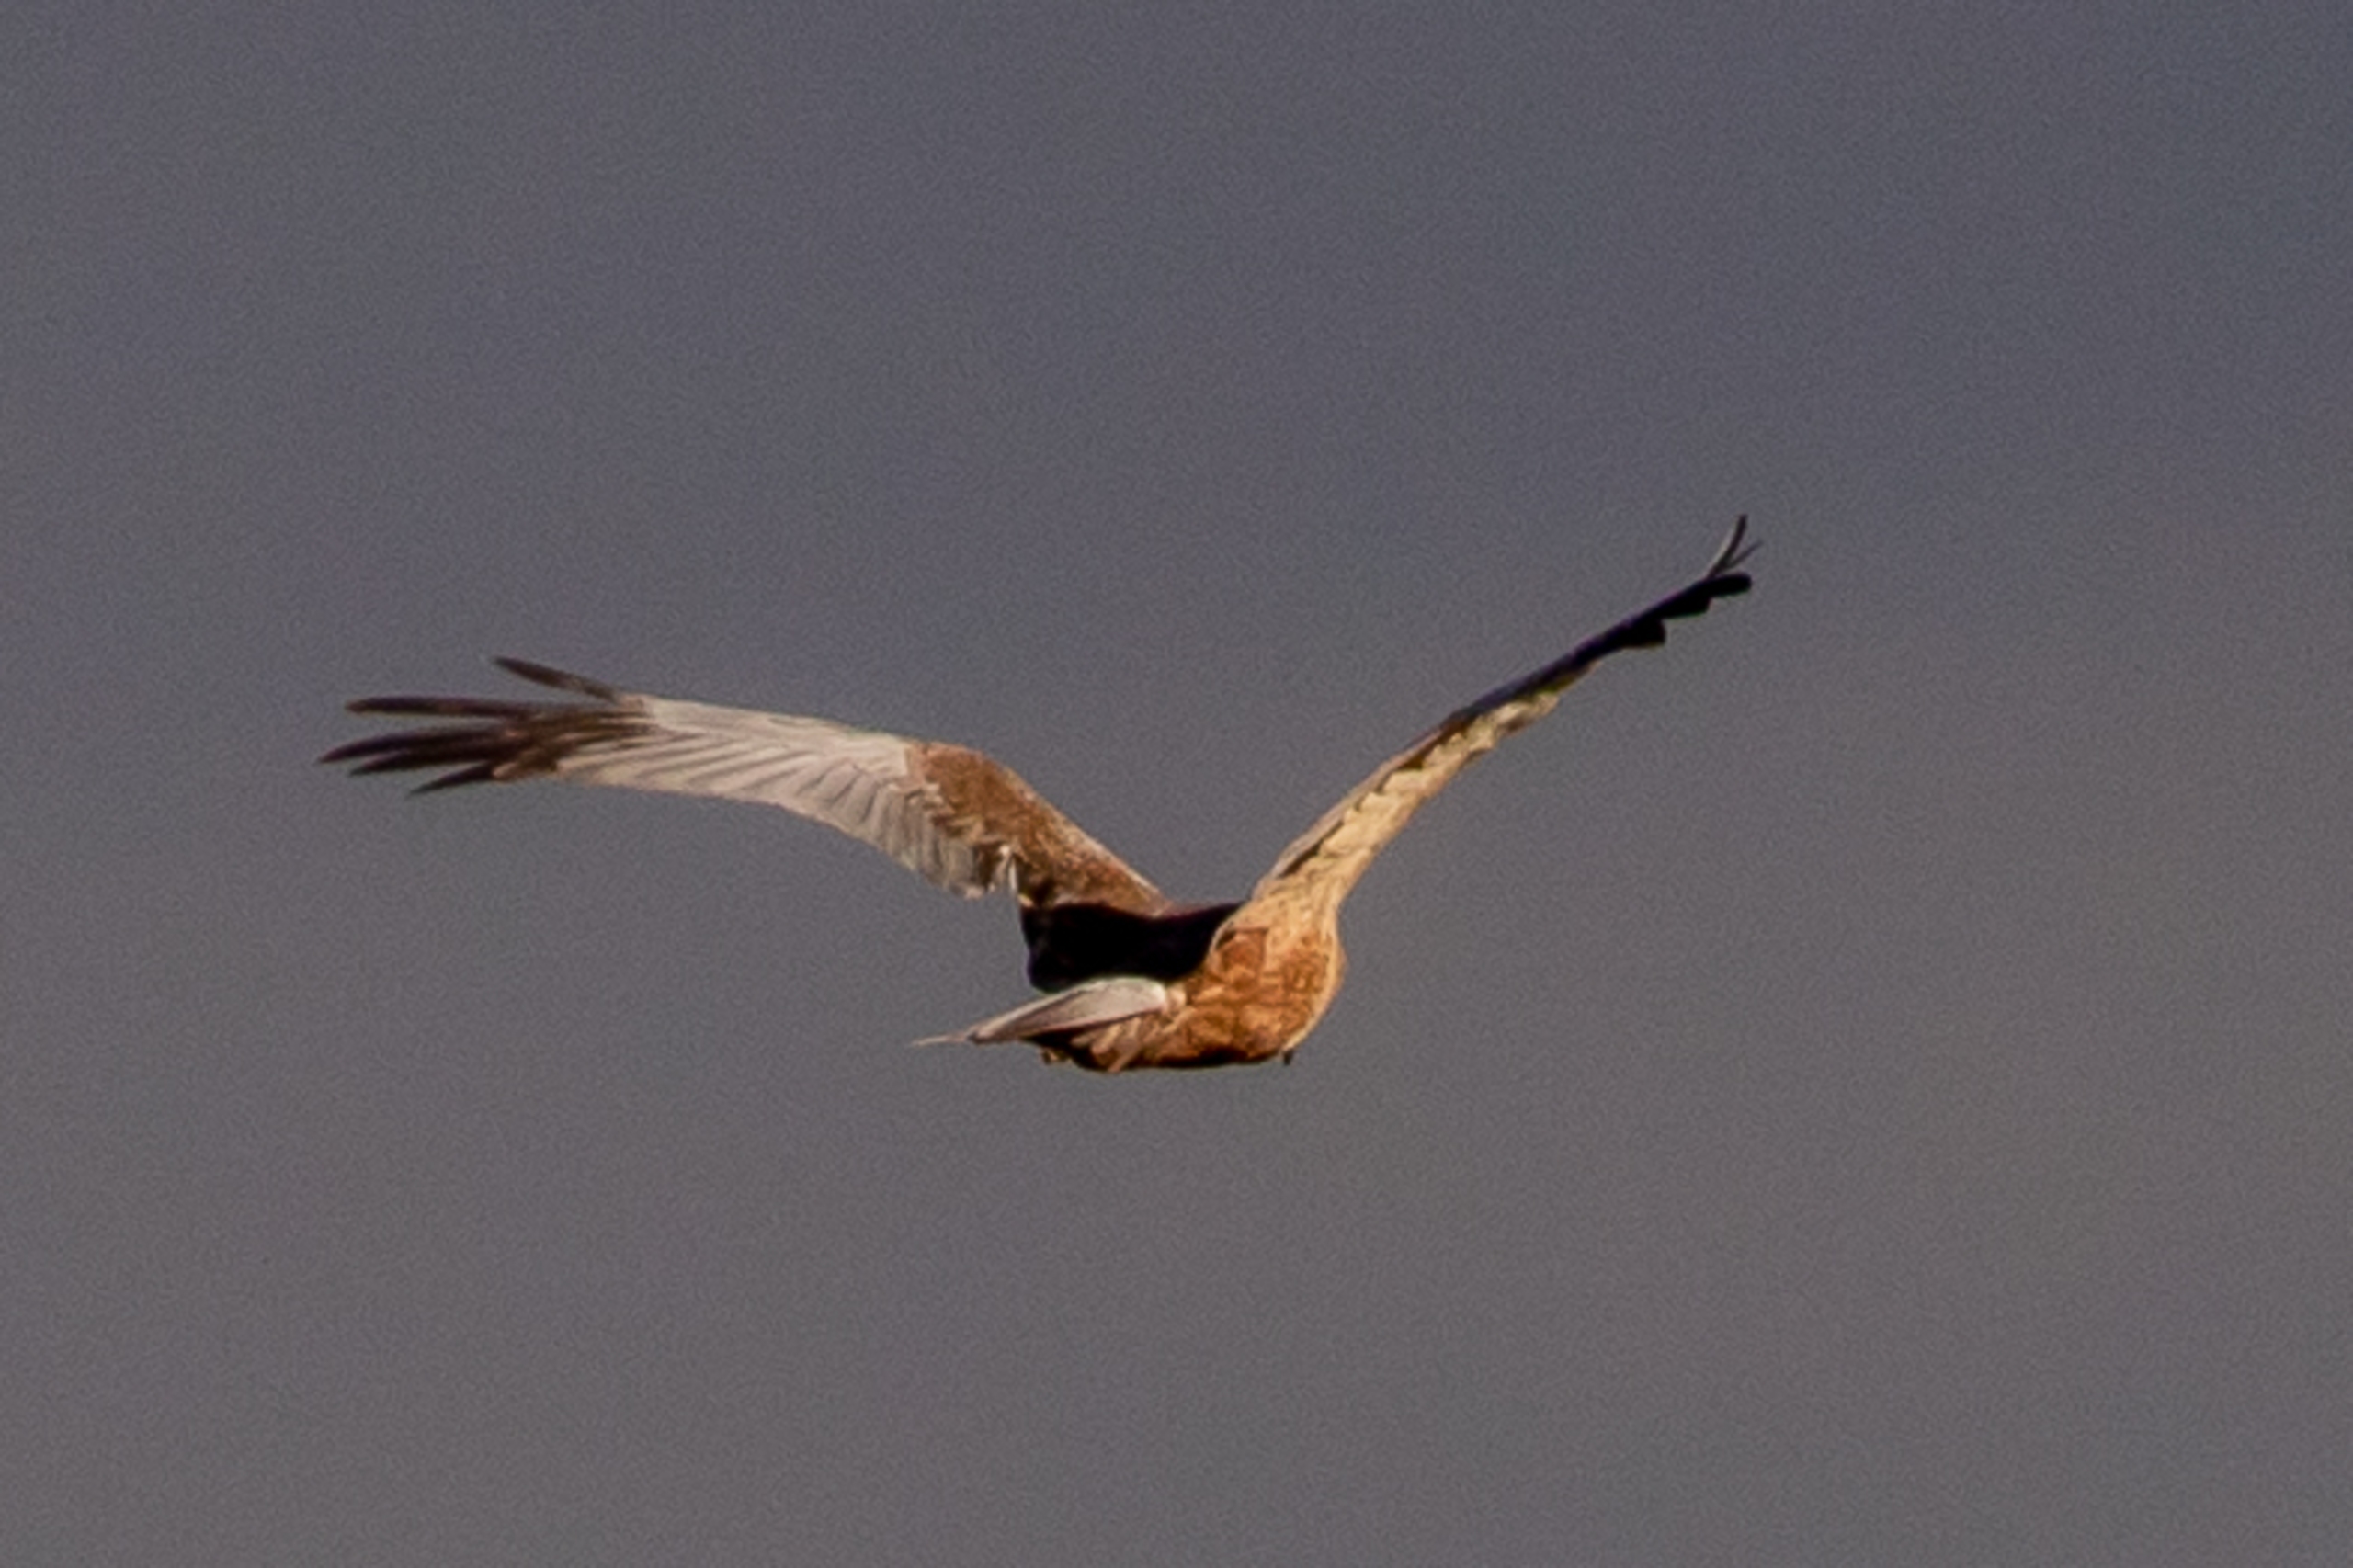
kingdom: Animalia
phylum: Chordata
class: Aves
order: Accipitriformes
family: Accipitridae
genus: Circus
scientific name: Circus aeruginosus
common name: Rørhøg
